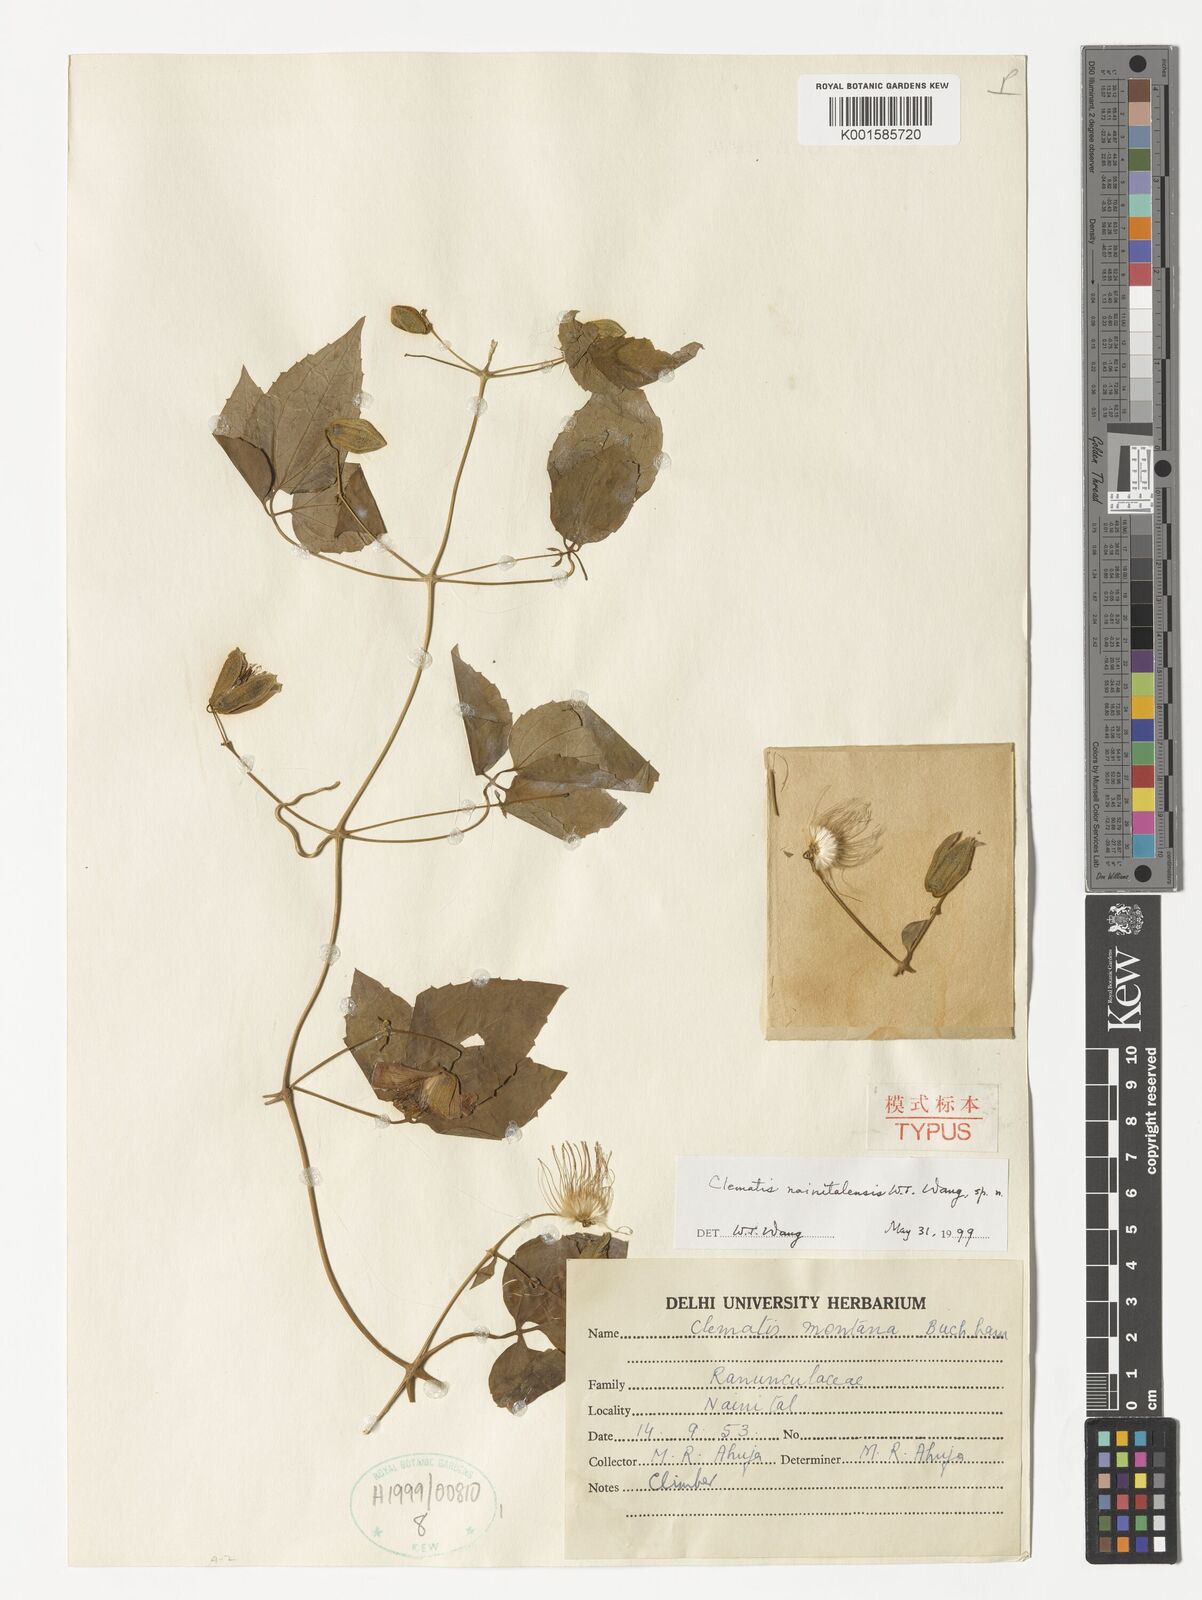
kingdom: Plantae
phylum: Tracheophyta
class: Magnoliopsida
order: Ranunculales
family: Ranunculaceae
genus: Clematis
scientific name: Clematis nainitalensis
